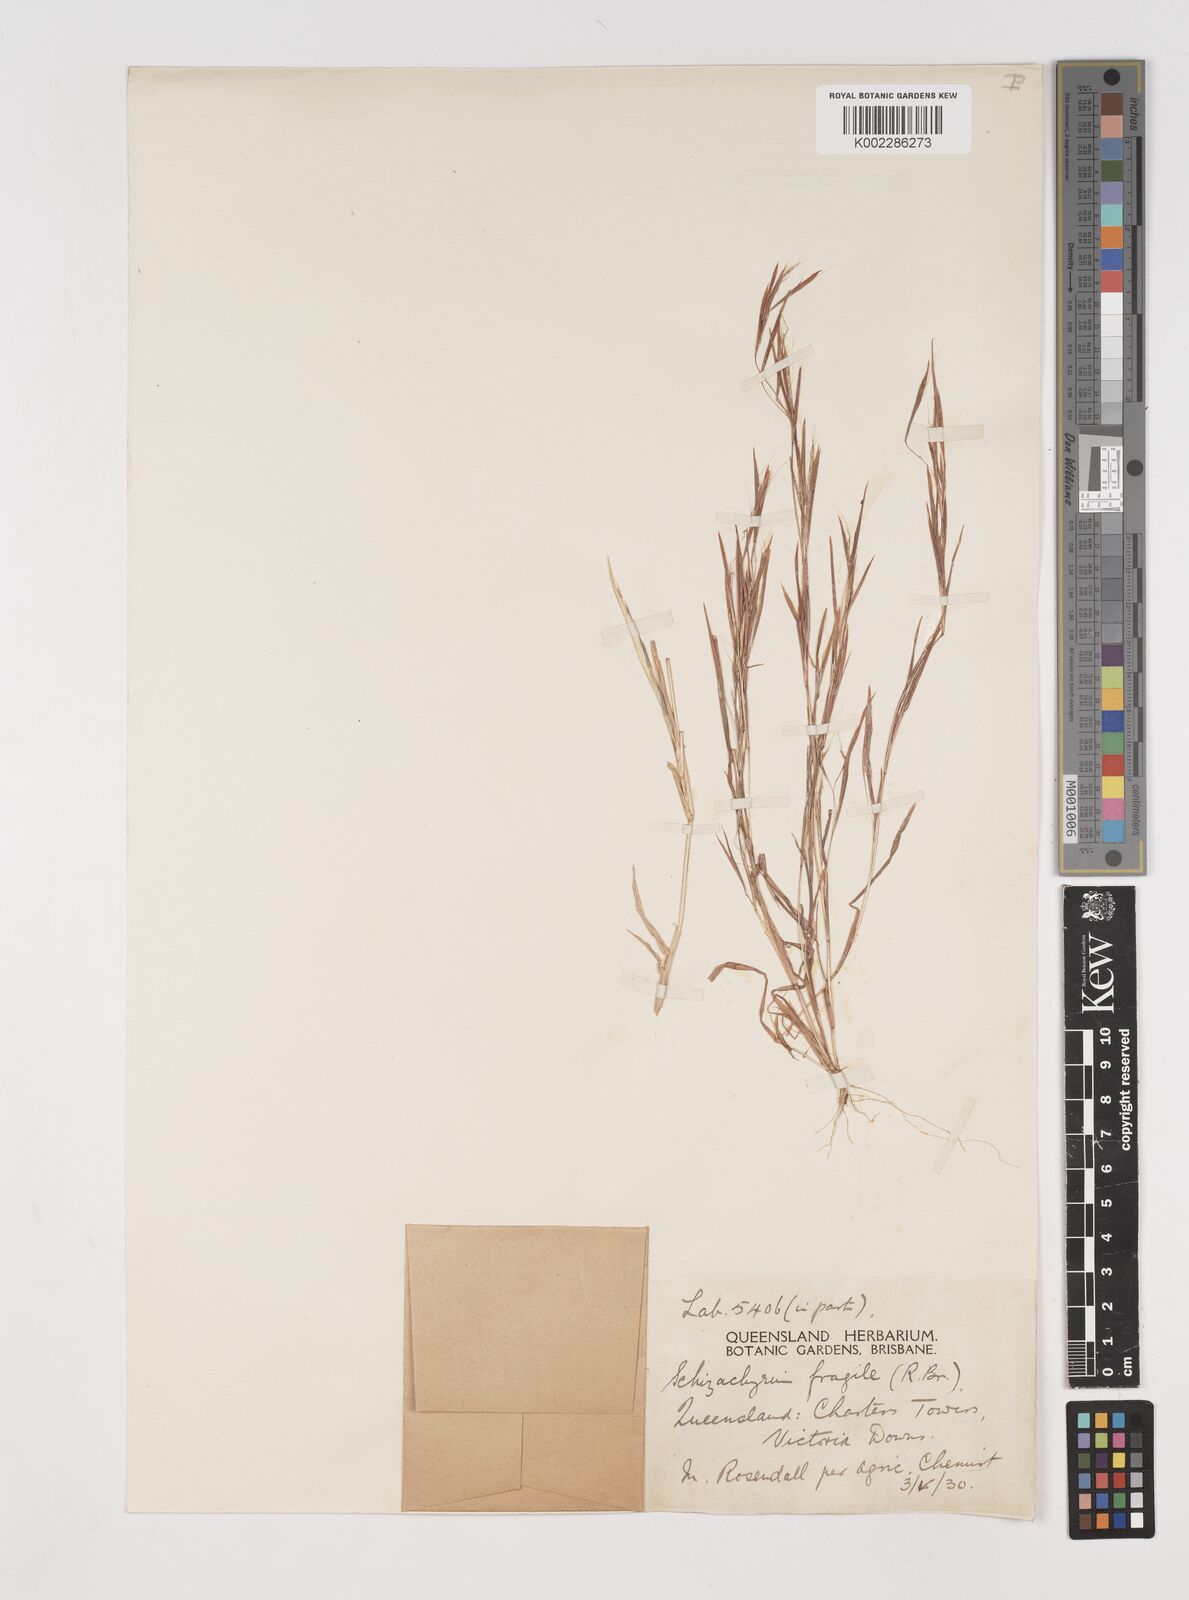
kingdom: Plantae
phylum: Tracheophyta
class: Liliopsida
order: Poales
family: Poaceae
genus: Schizachyrium
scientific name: Schizachyrium pseudeulalia
